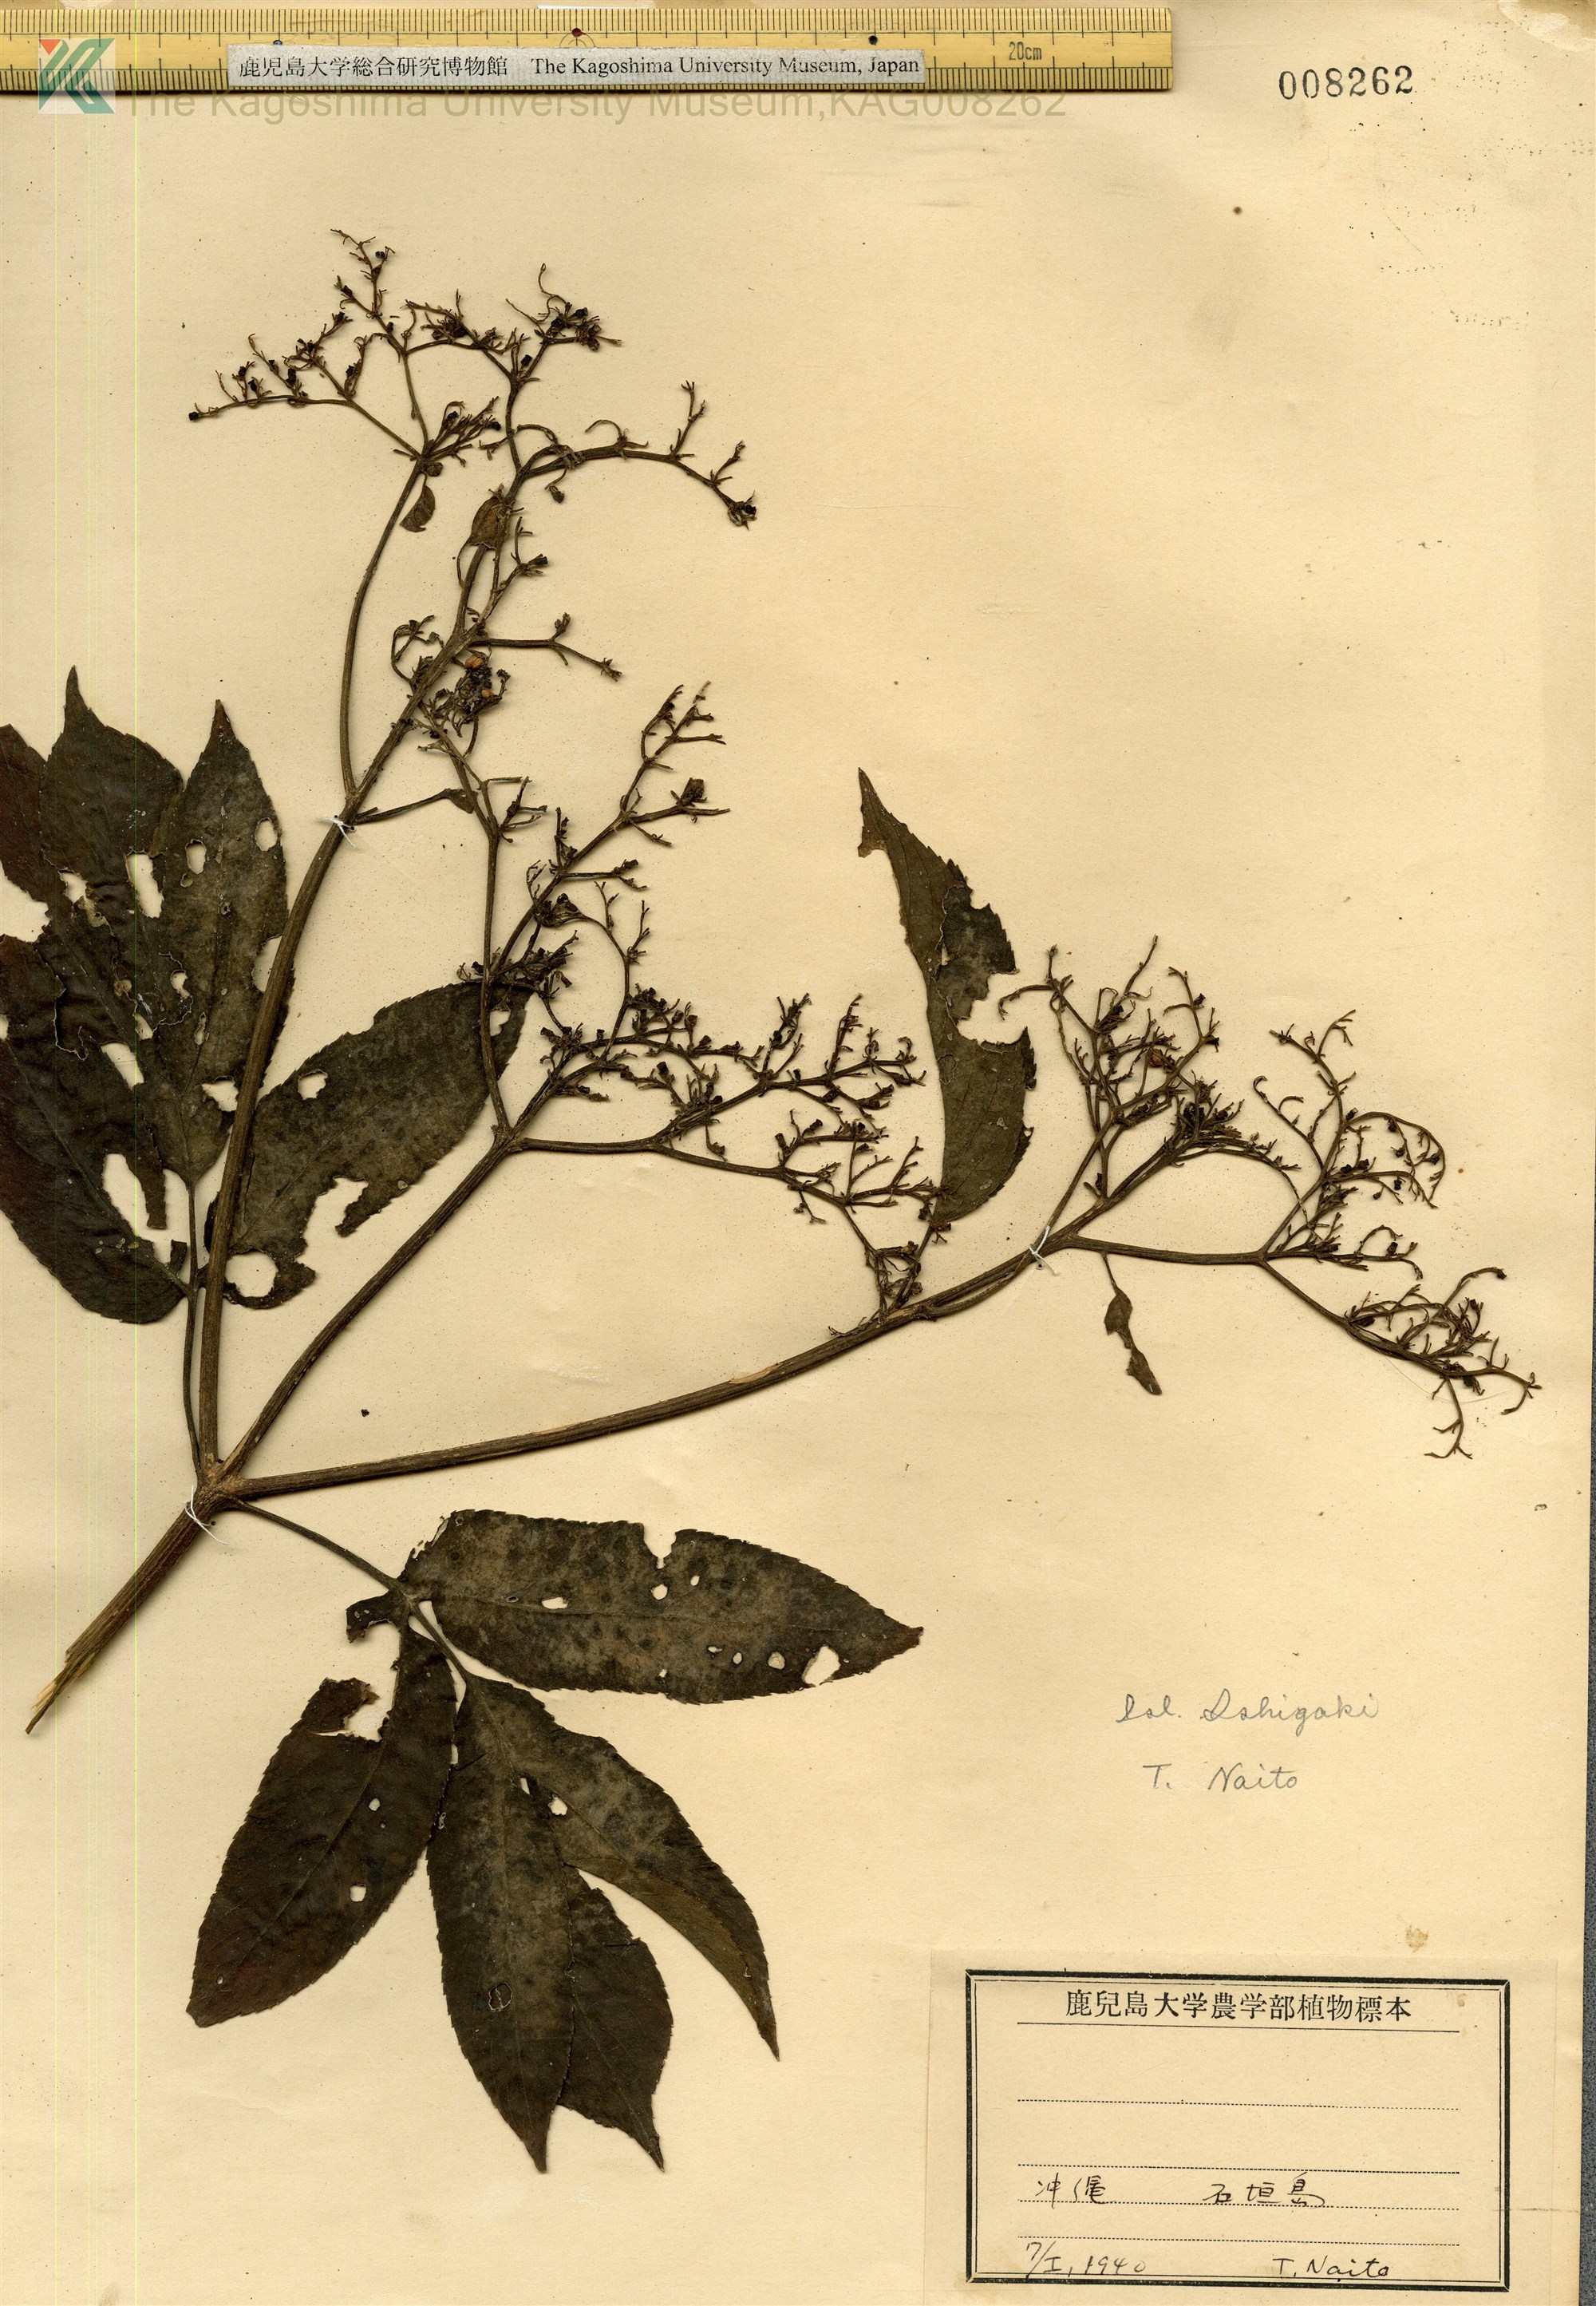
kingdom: Plantae
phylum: Tracheophyta
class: Magnoliopsida
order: Dipsacales
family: Viburnaceae
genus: Sambucus
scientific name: Sambucus javanica
